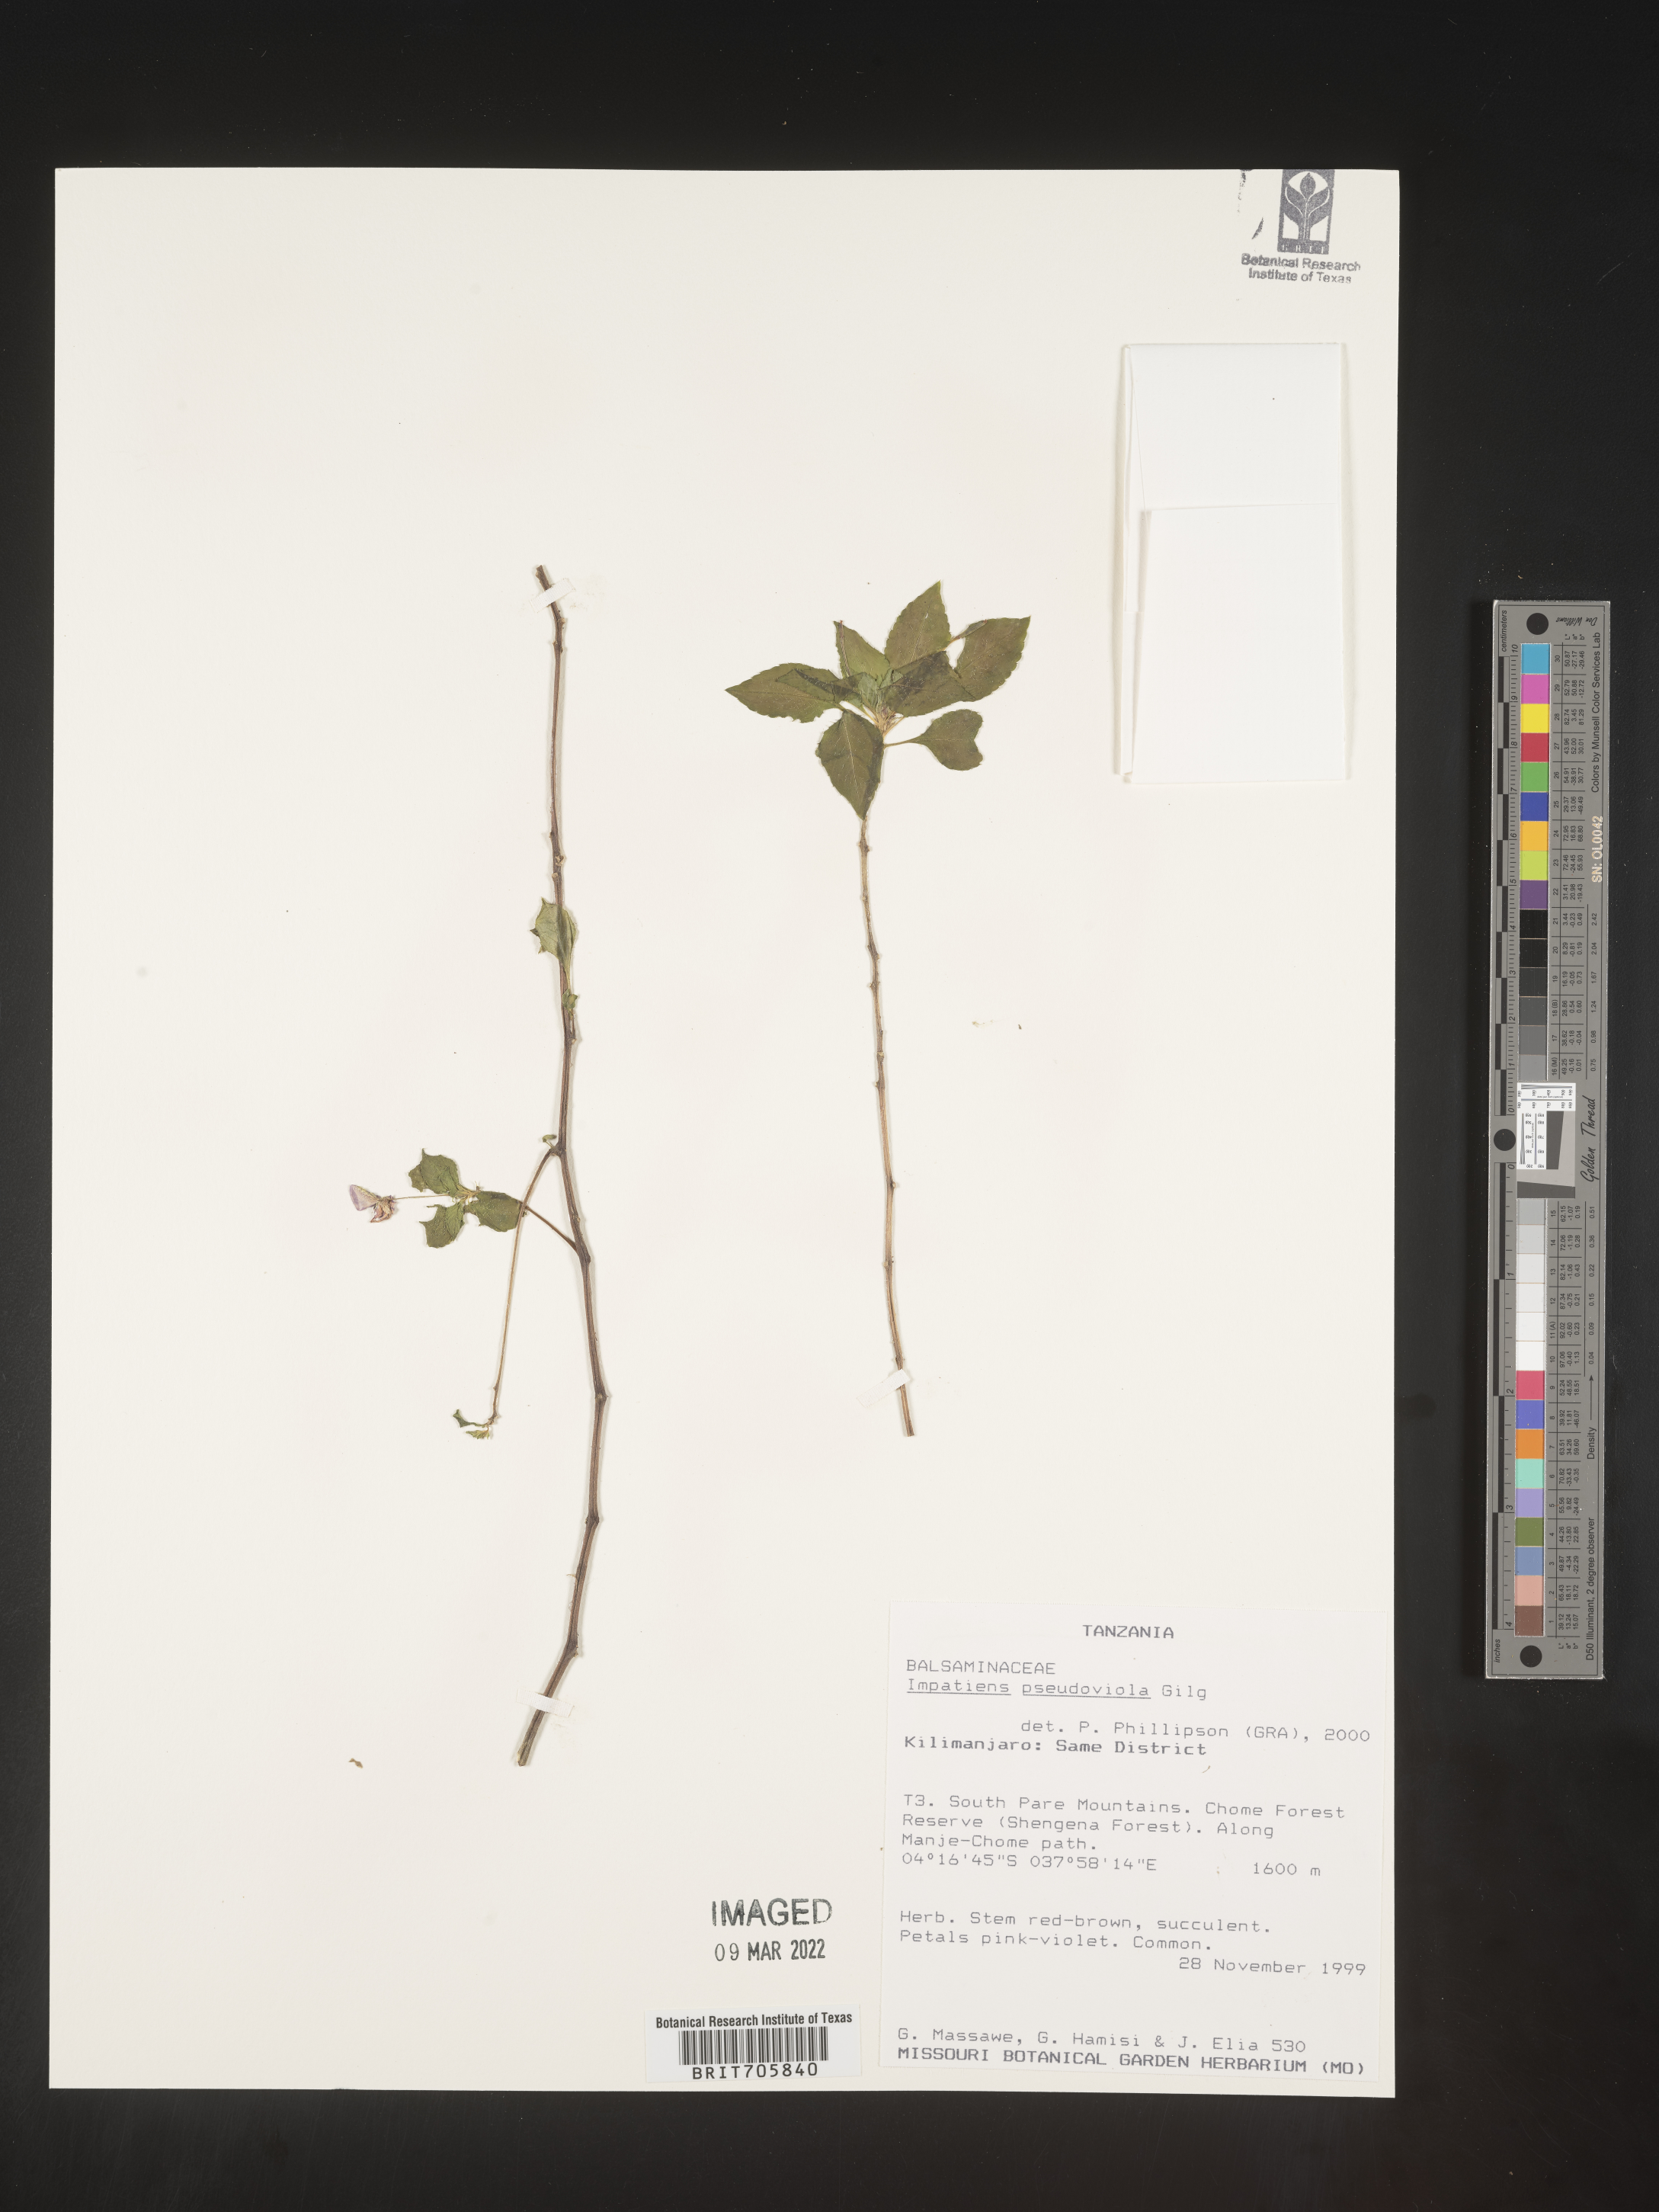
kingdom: Plantae
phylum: Tracheophyta
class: Magnoliopsida
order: Ericales
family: Balsaminaceae
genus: Impatiens
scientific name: Impatiens
